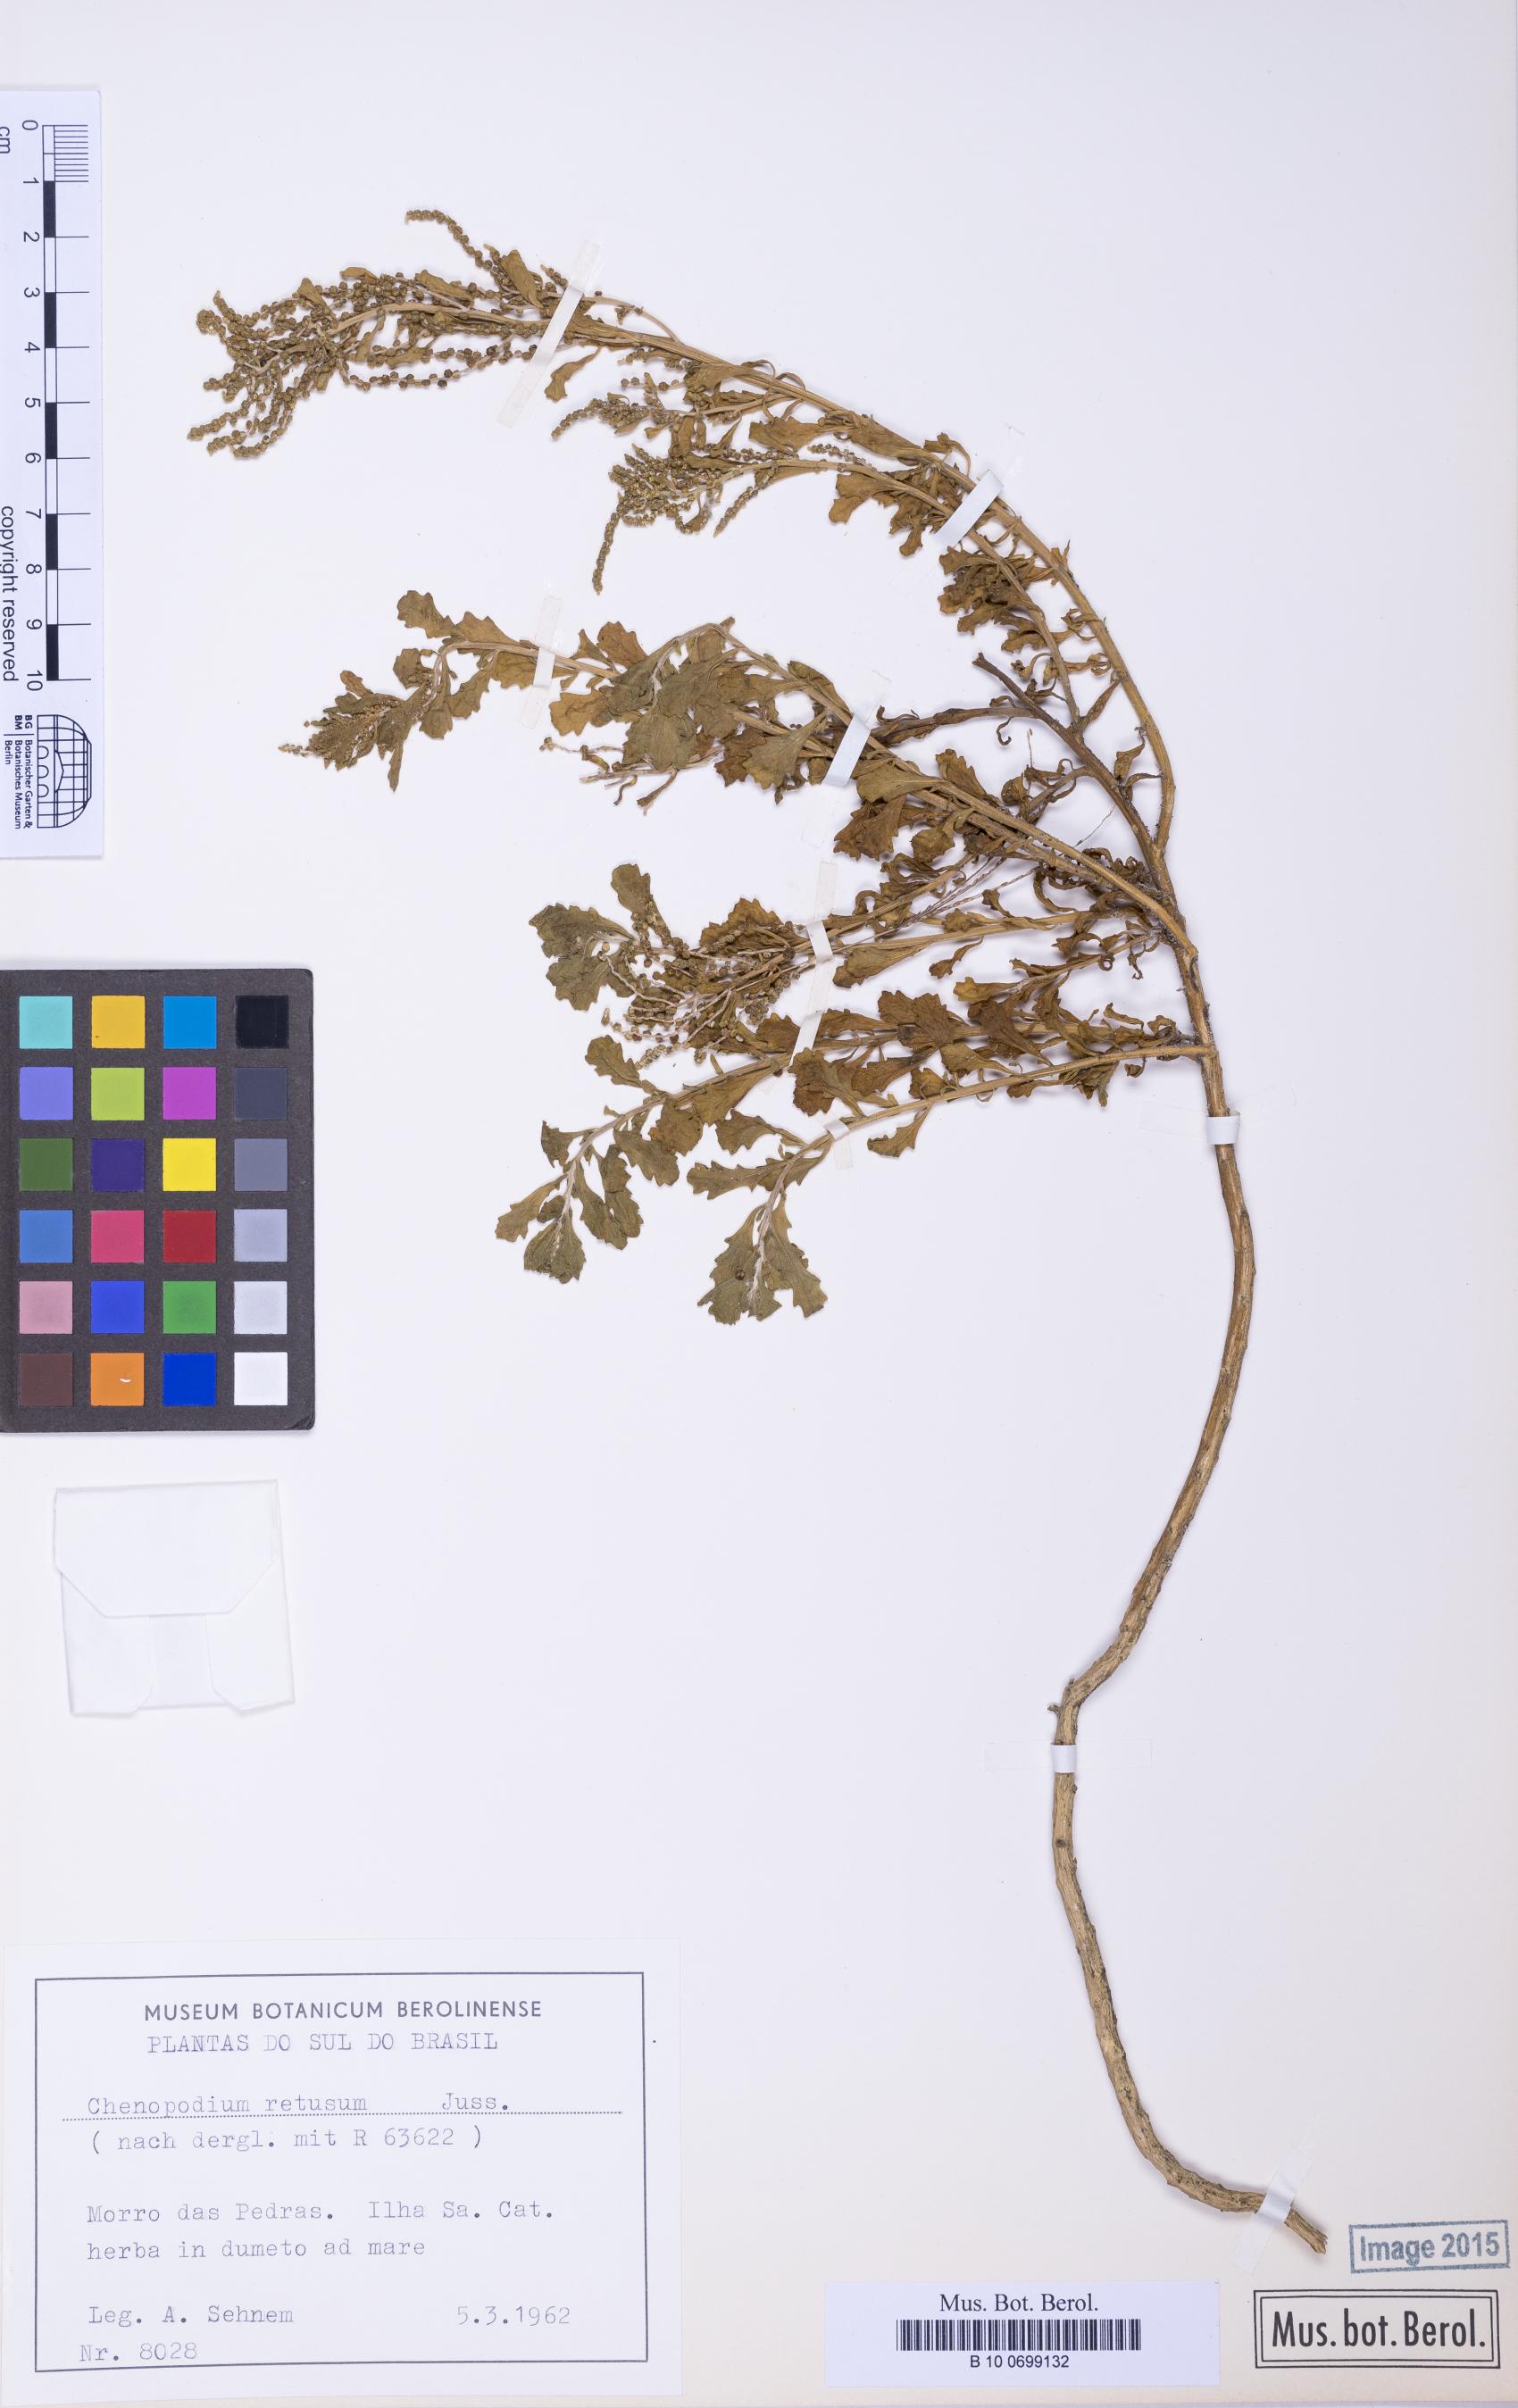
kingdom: Plantae
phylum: Tracheophyta
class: Magnoliopsida
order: Caryophyllales
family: Amaranthaceae
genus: Dysphania
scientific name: Dysphania retusa
